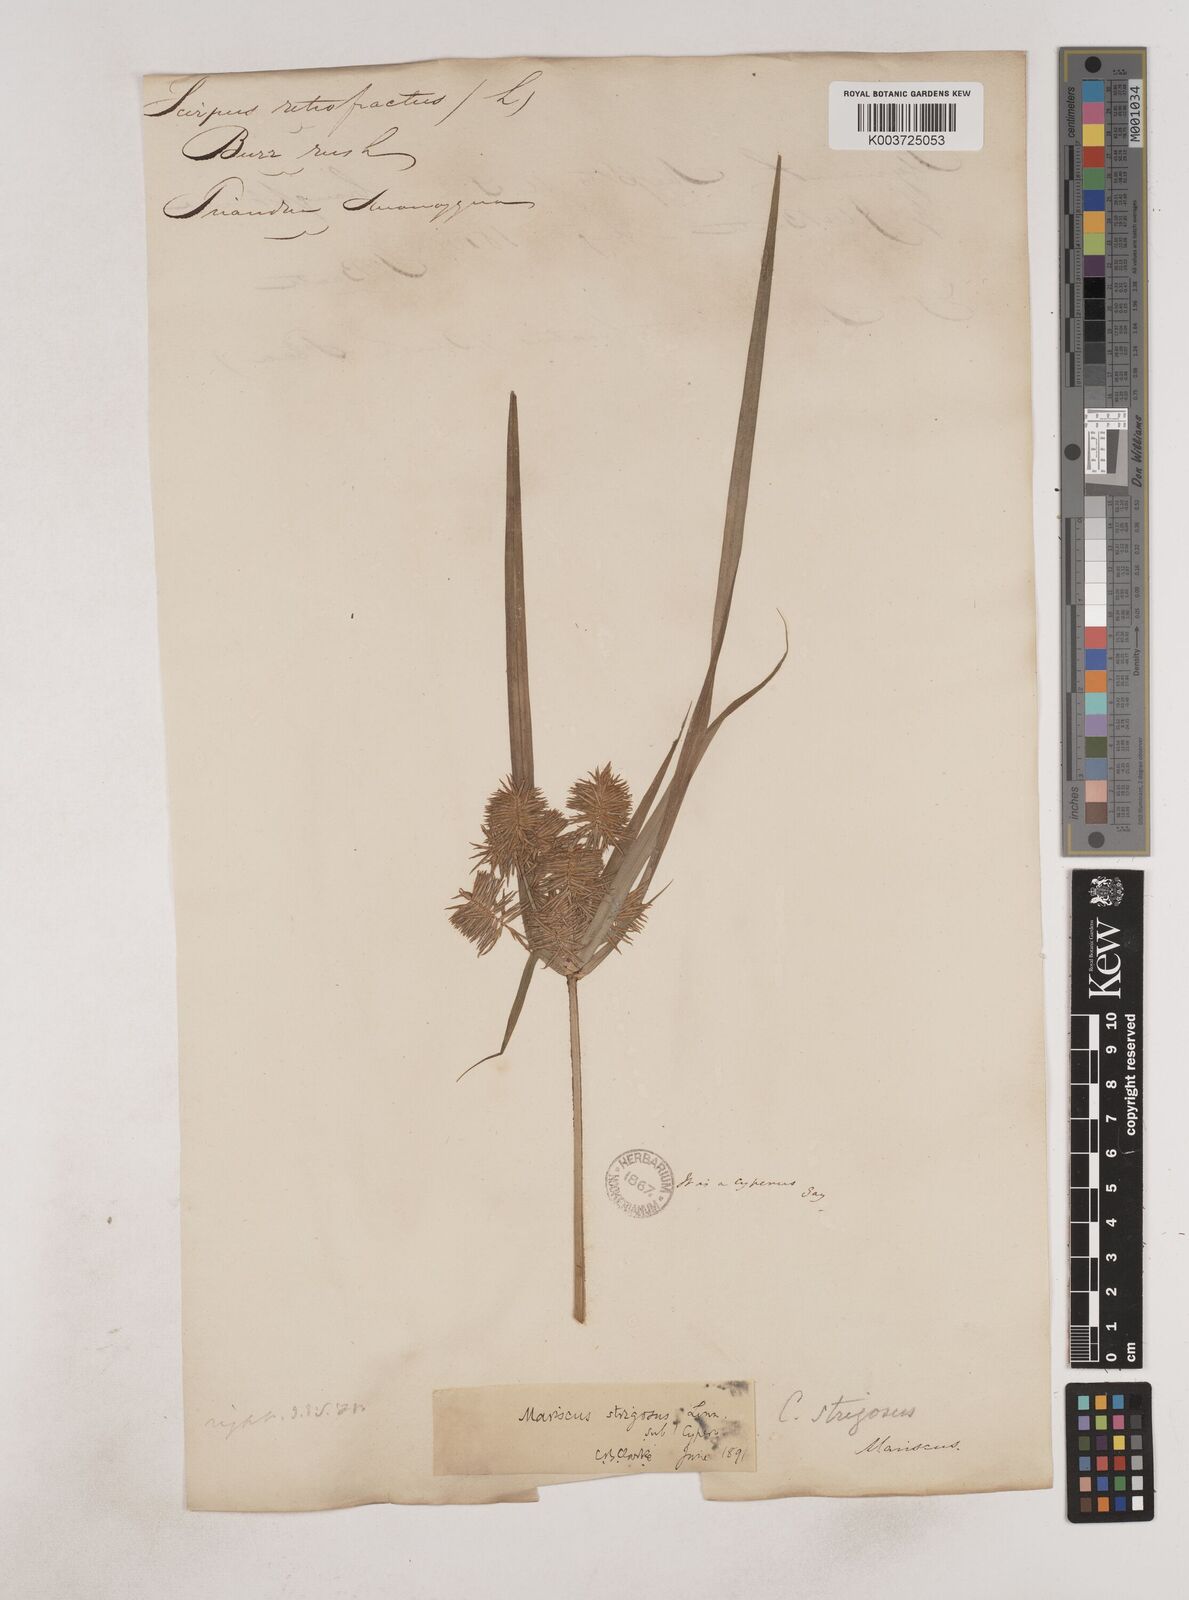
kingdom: Plantae
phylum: Tracheophyta
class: Liliopsida
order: Poales
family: Cyperaceae
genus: Cyperus
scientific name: Cyperus strigosus
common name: False nutsedge
